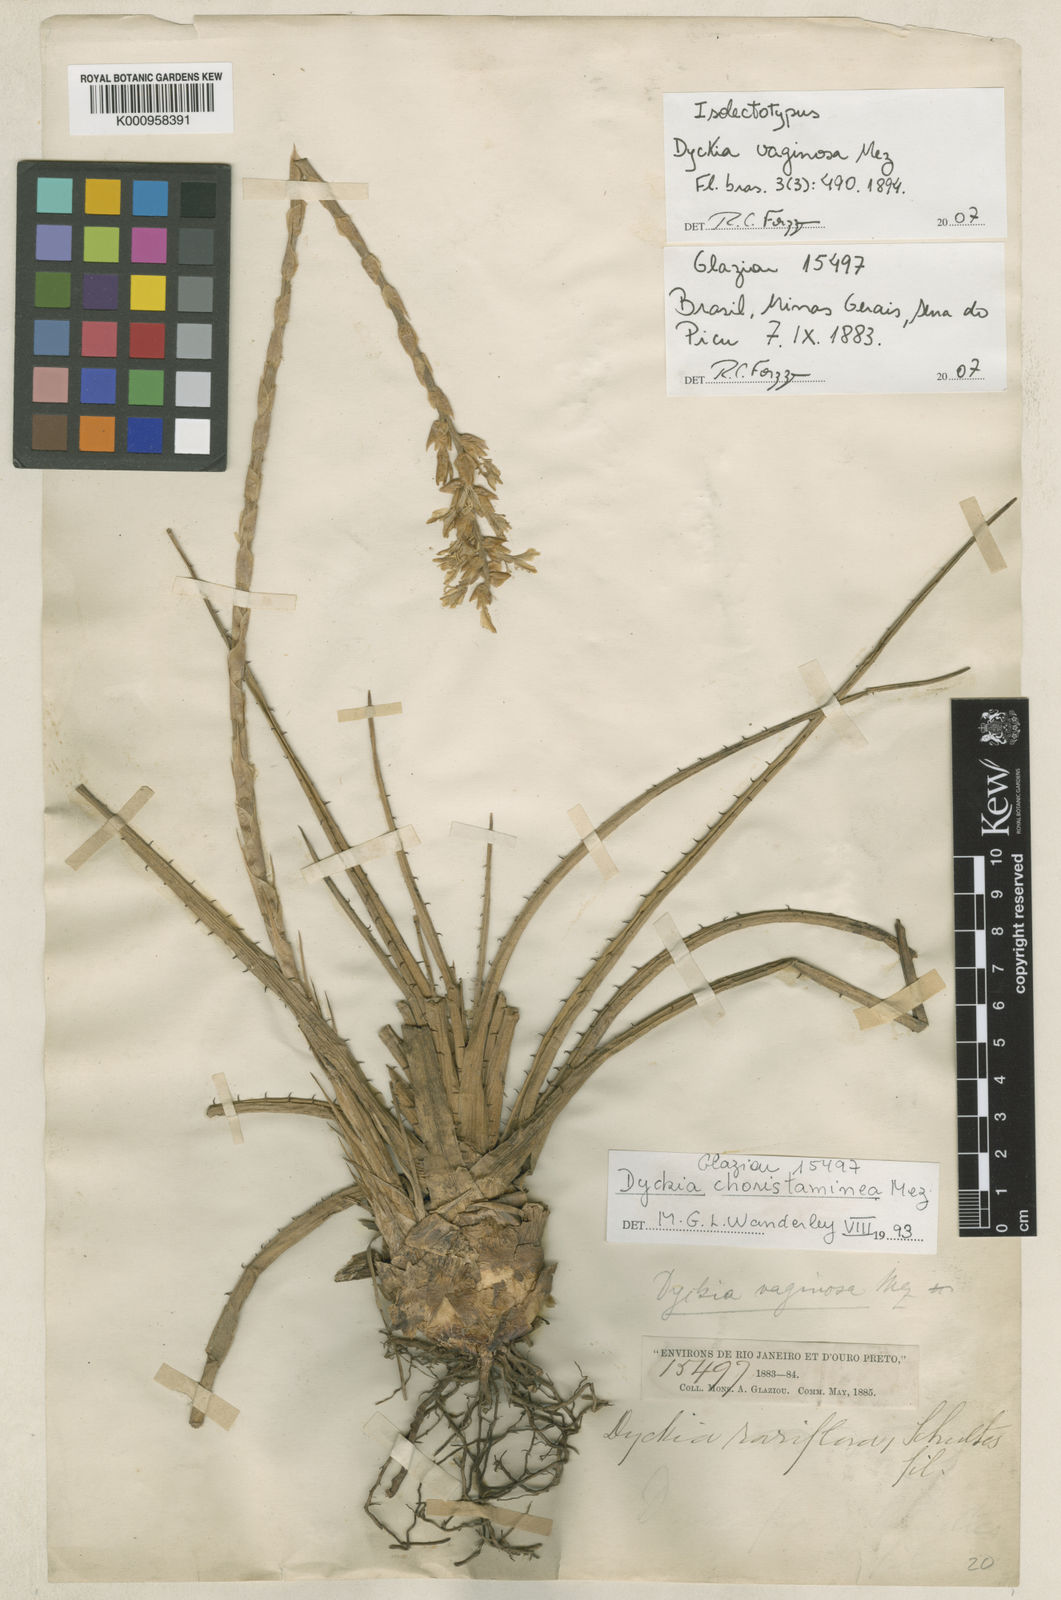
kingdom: Plantae
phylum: Tracheophyta
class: Liliopsida
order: Poales
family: Bromeliaceae
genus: Dyckia
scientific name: Dyckia remotiflora
